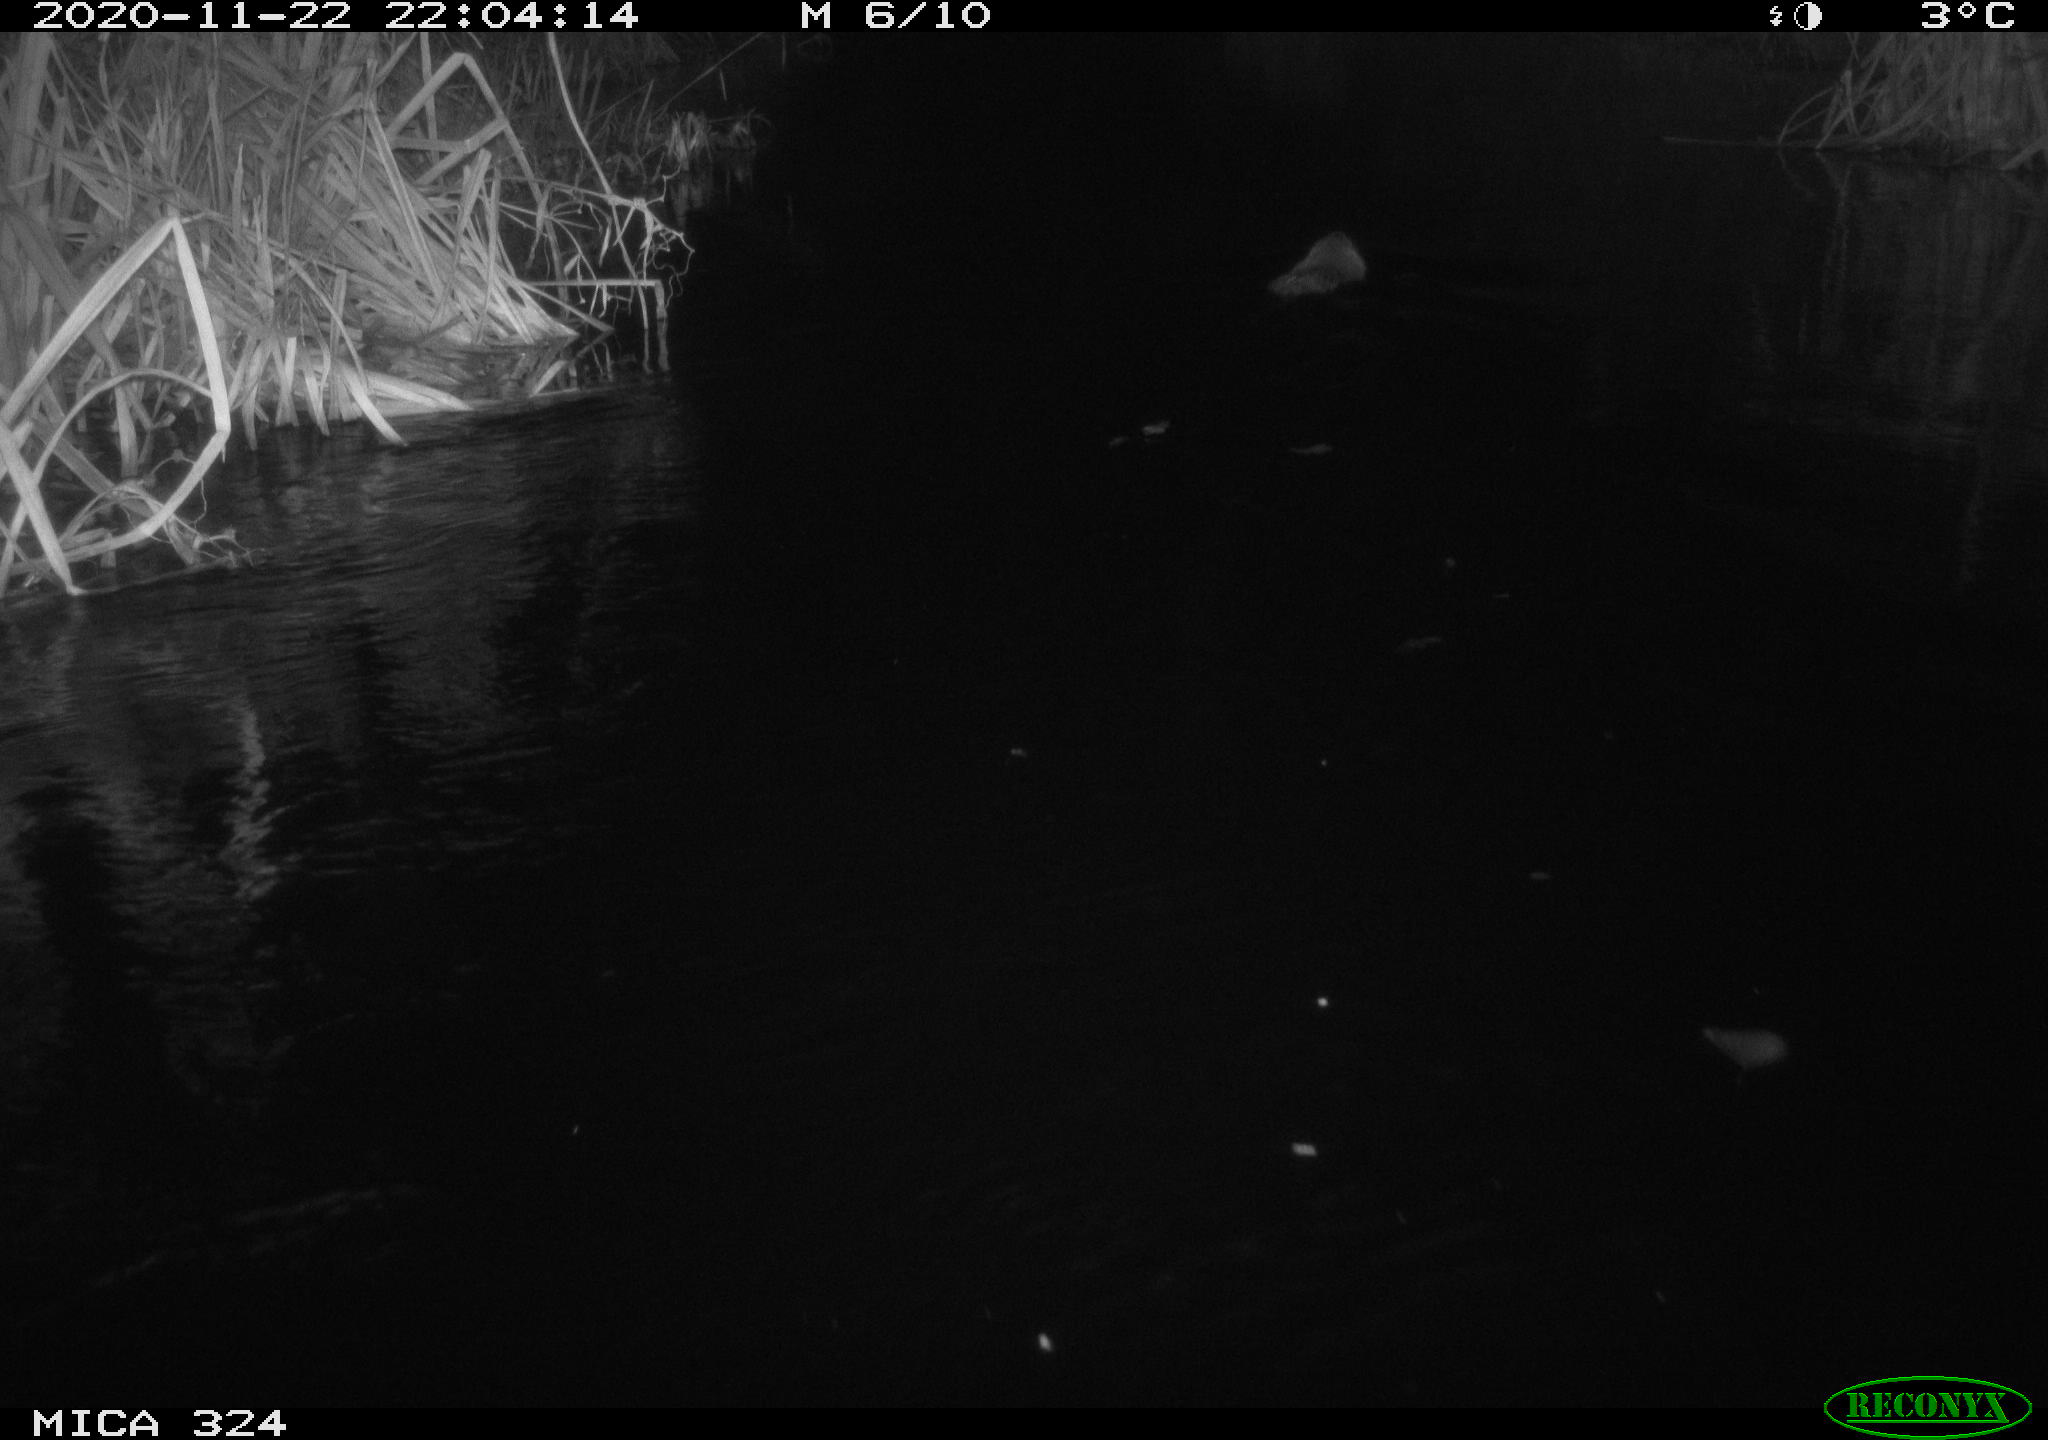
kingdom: Animalia
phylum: Chordata
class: Mammalia
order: Rodentia
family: Myocastoridae
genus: Myocastor
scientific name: Myocastor coypus
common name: Coypu
